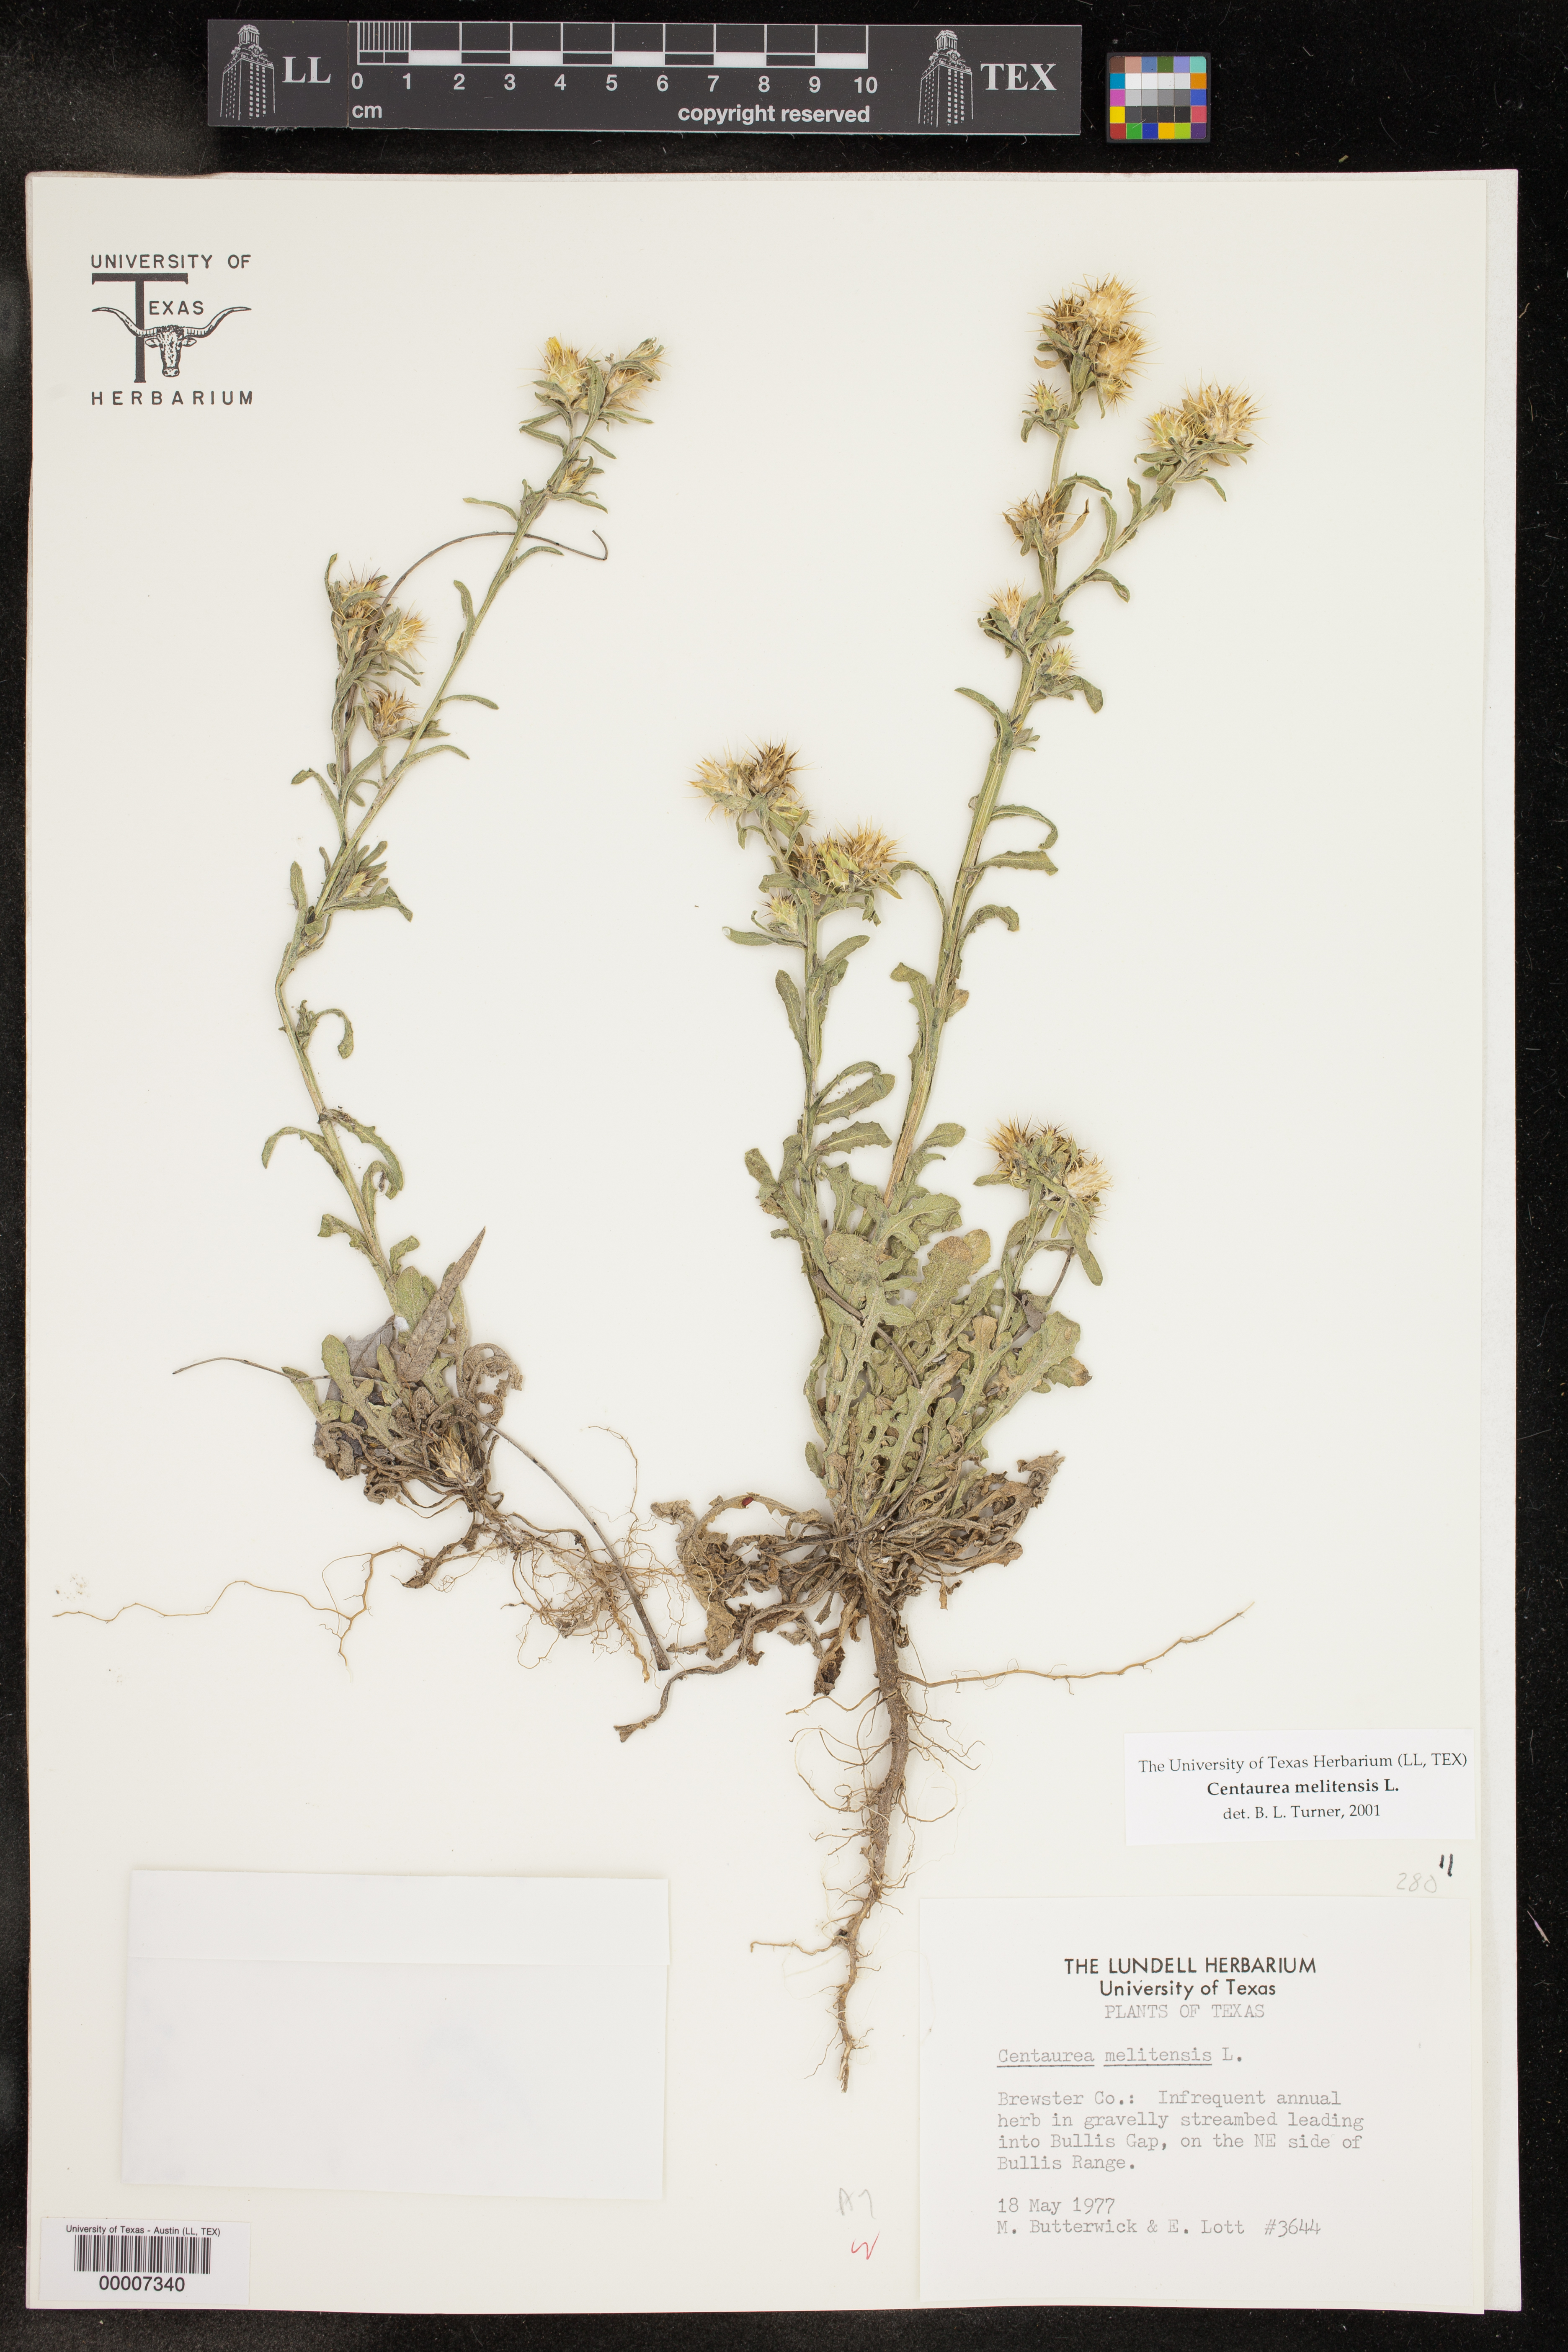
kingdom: Plantae
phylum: Tracheophyta
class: Magnoliopsida
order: Asterales
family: Asteraceae
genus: Centaurea
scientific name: Centaurea melitensis
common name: Maltese star-thistle
